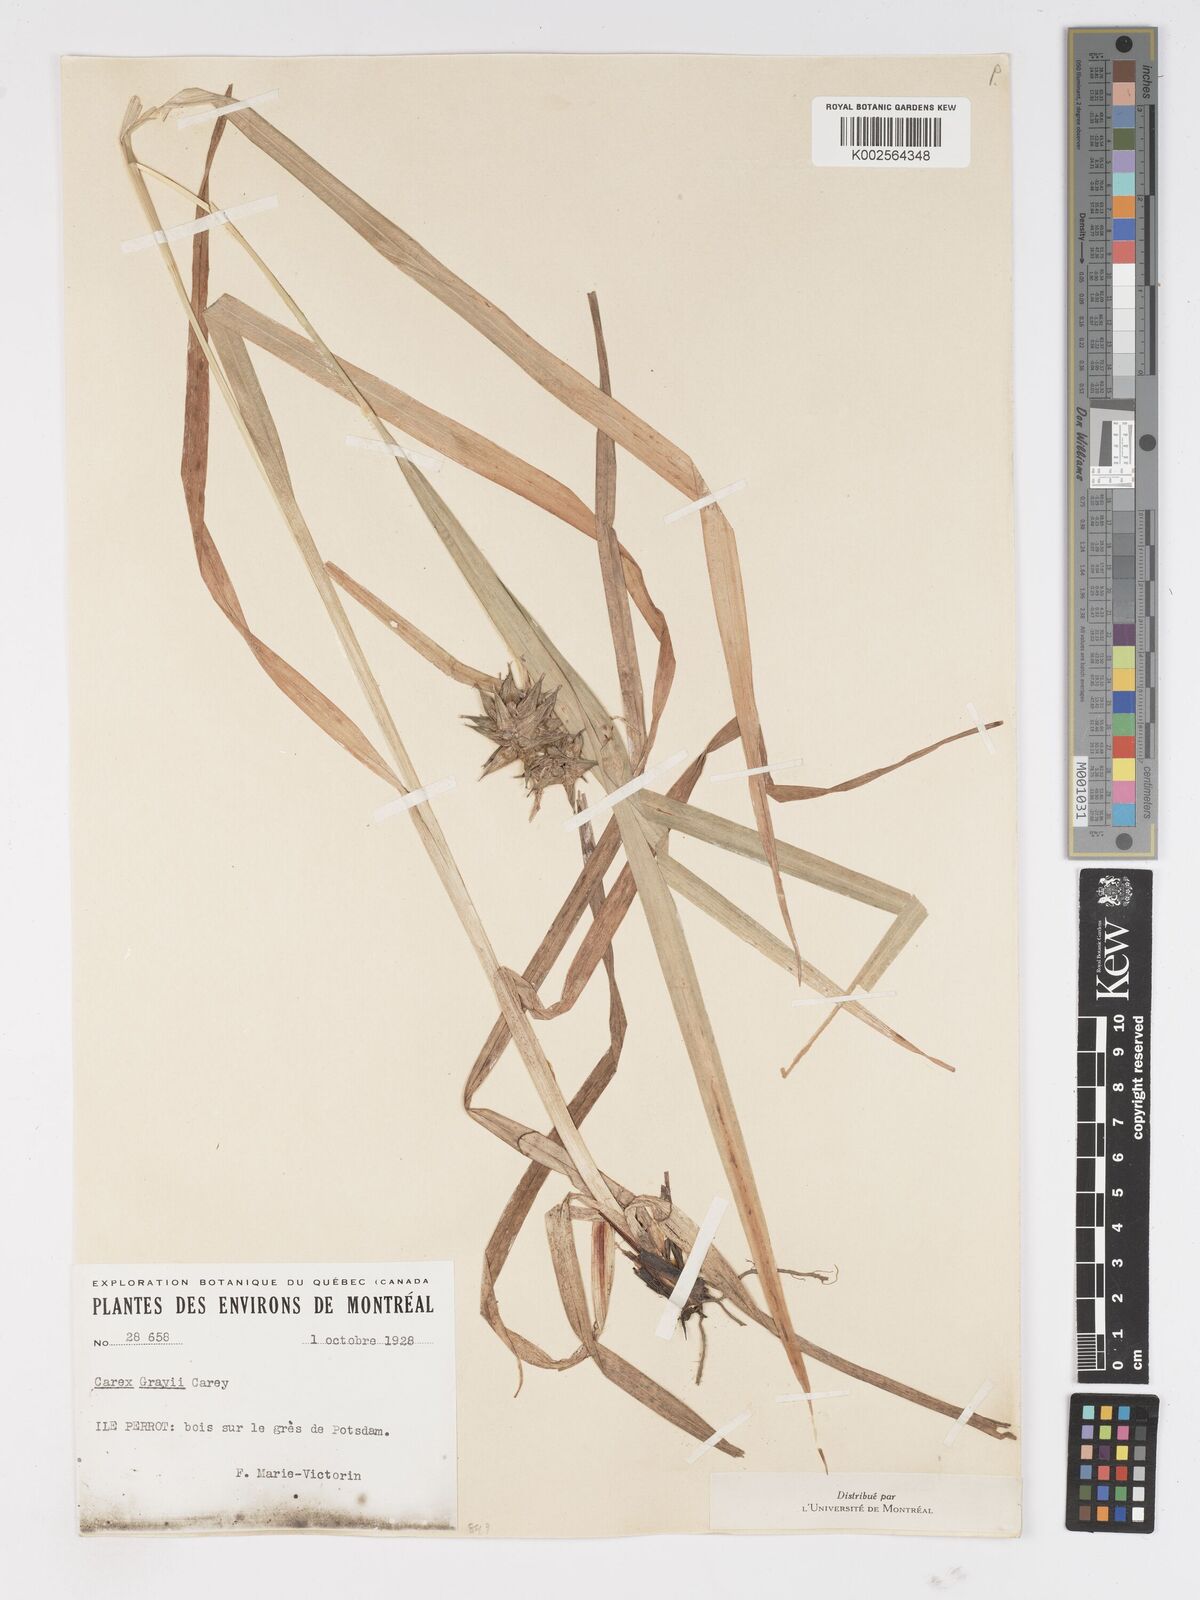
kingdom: Plantae
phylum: Tracheophyta
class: Liliopsida
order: Poales
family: Cyperaceae
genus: Carex
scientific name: Carex grayi
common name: Asa gray's sedge
